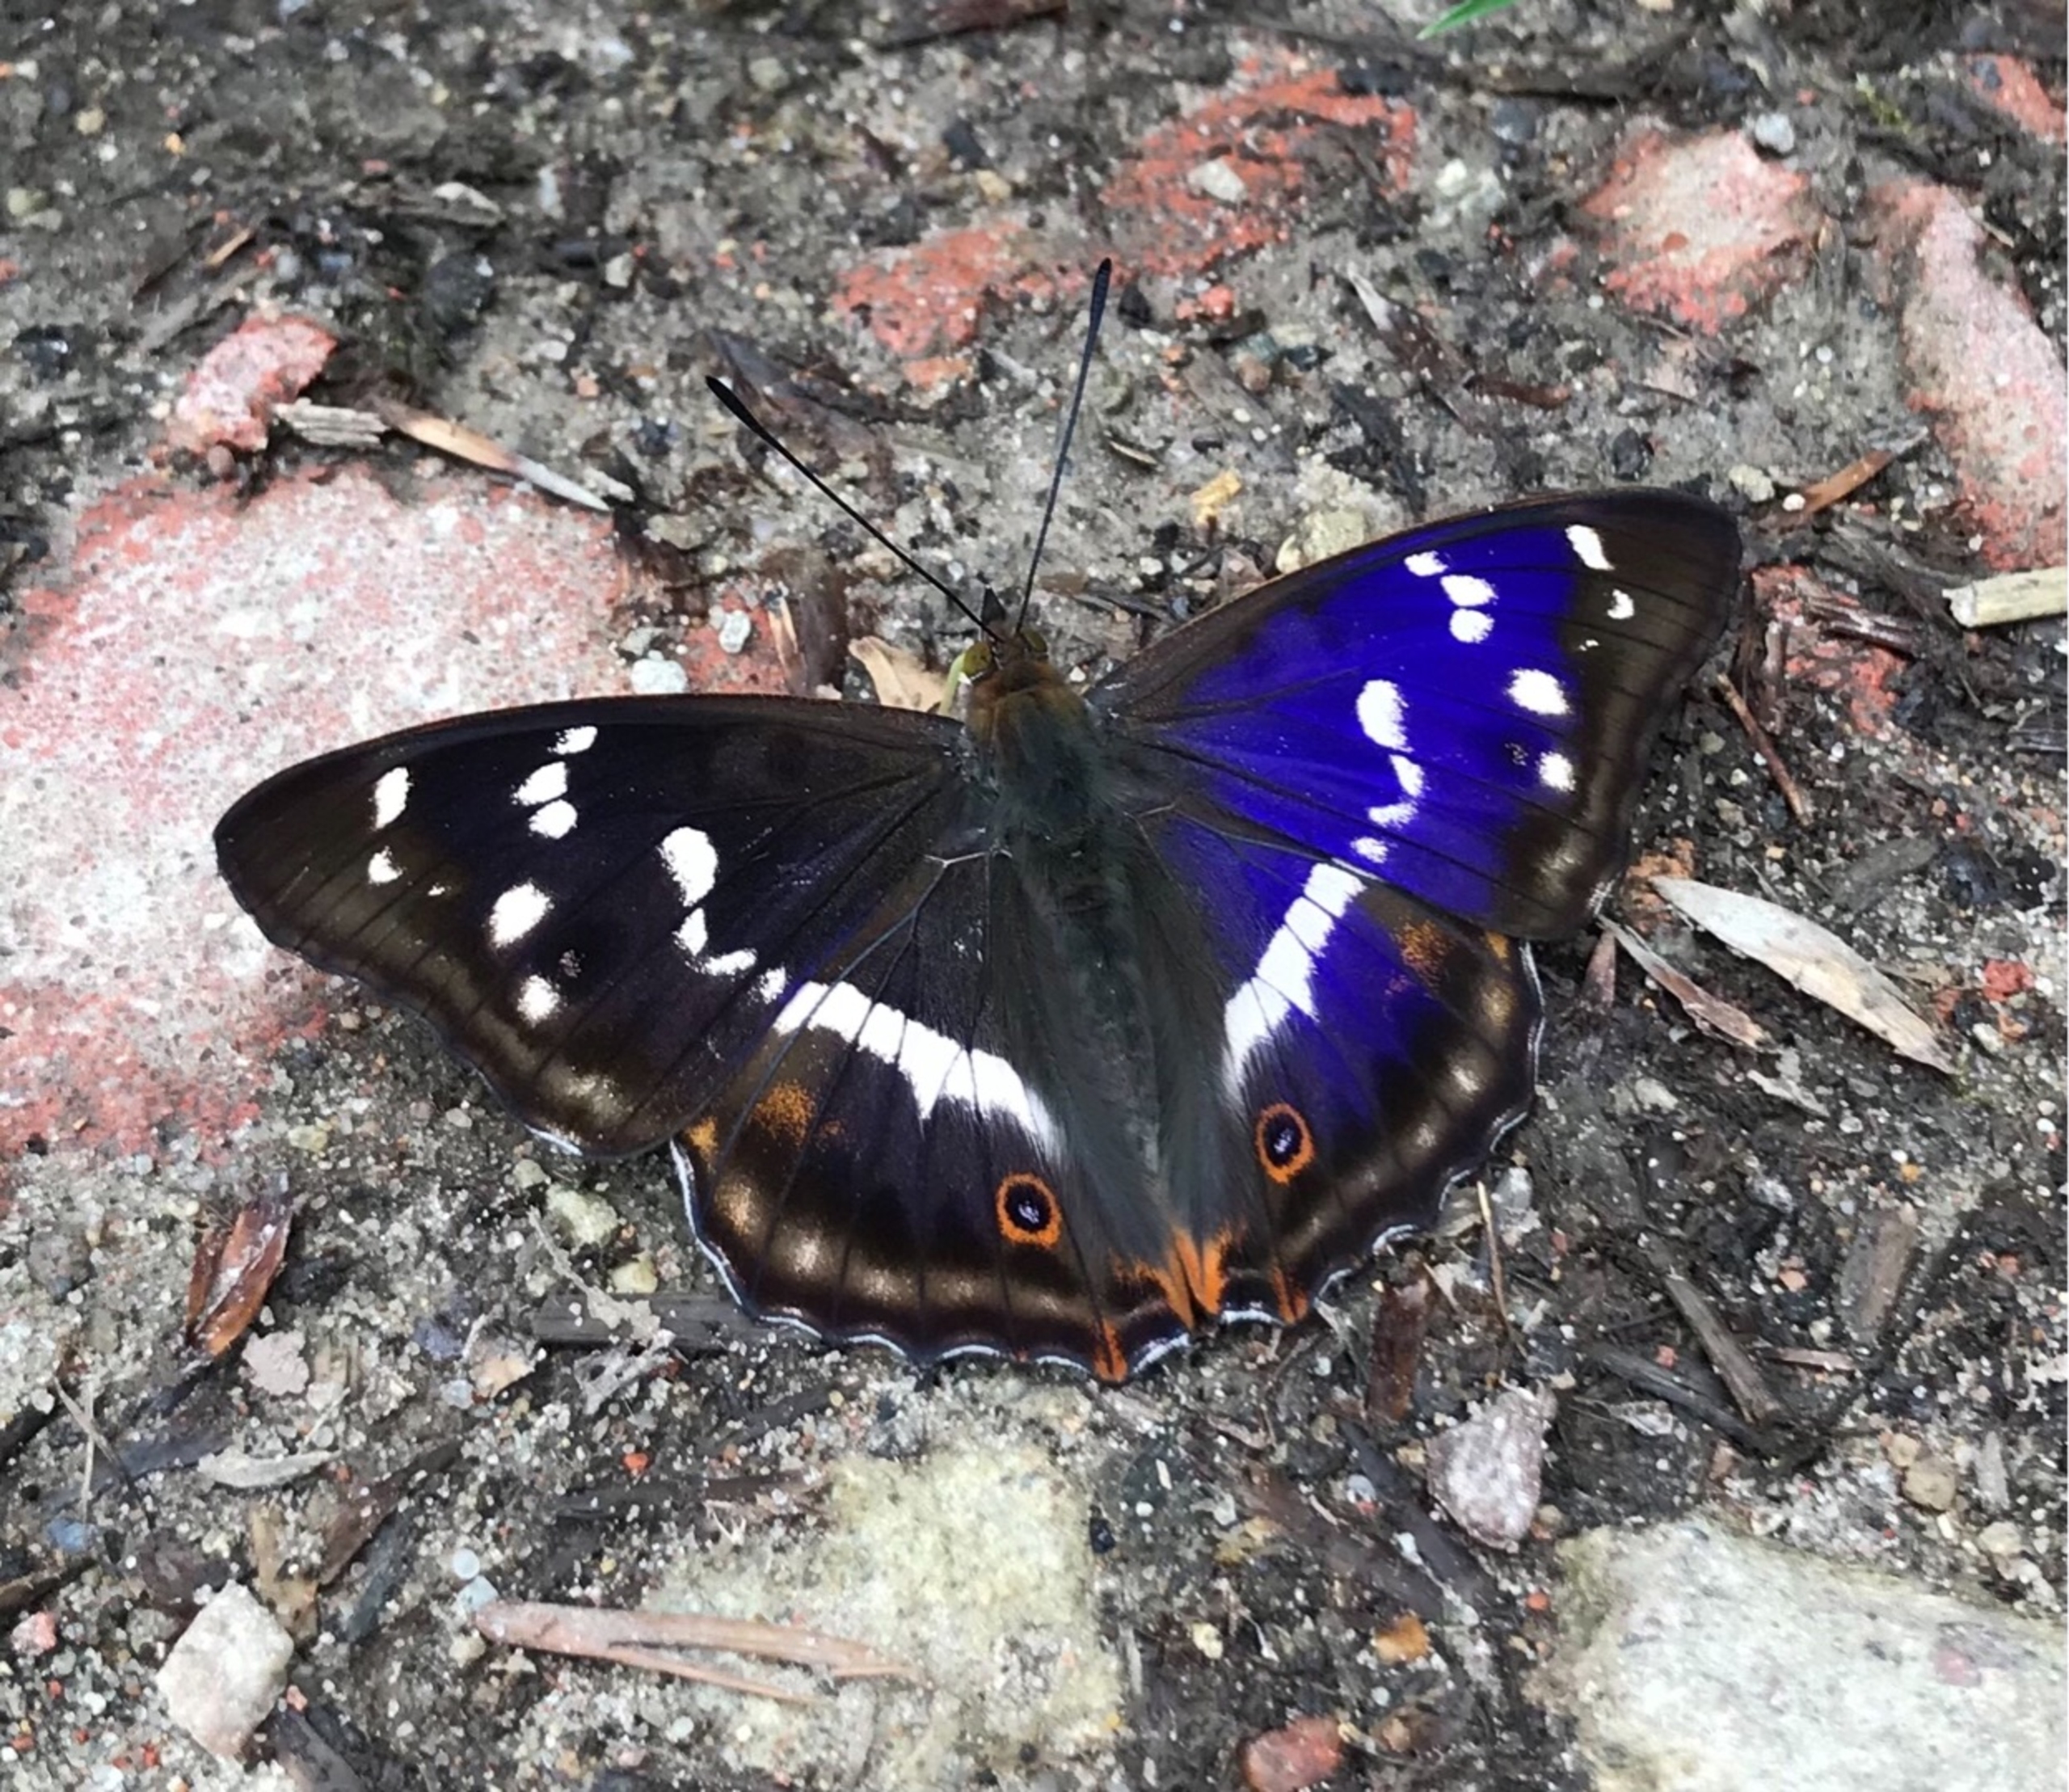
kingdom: Animalia
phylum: Arthropoda
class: Insecta
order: Lepidoptera
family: Nymphalidae
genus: Apatura
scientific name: Apatura iris
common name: Iris
